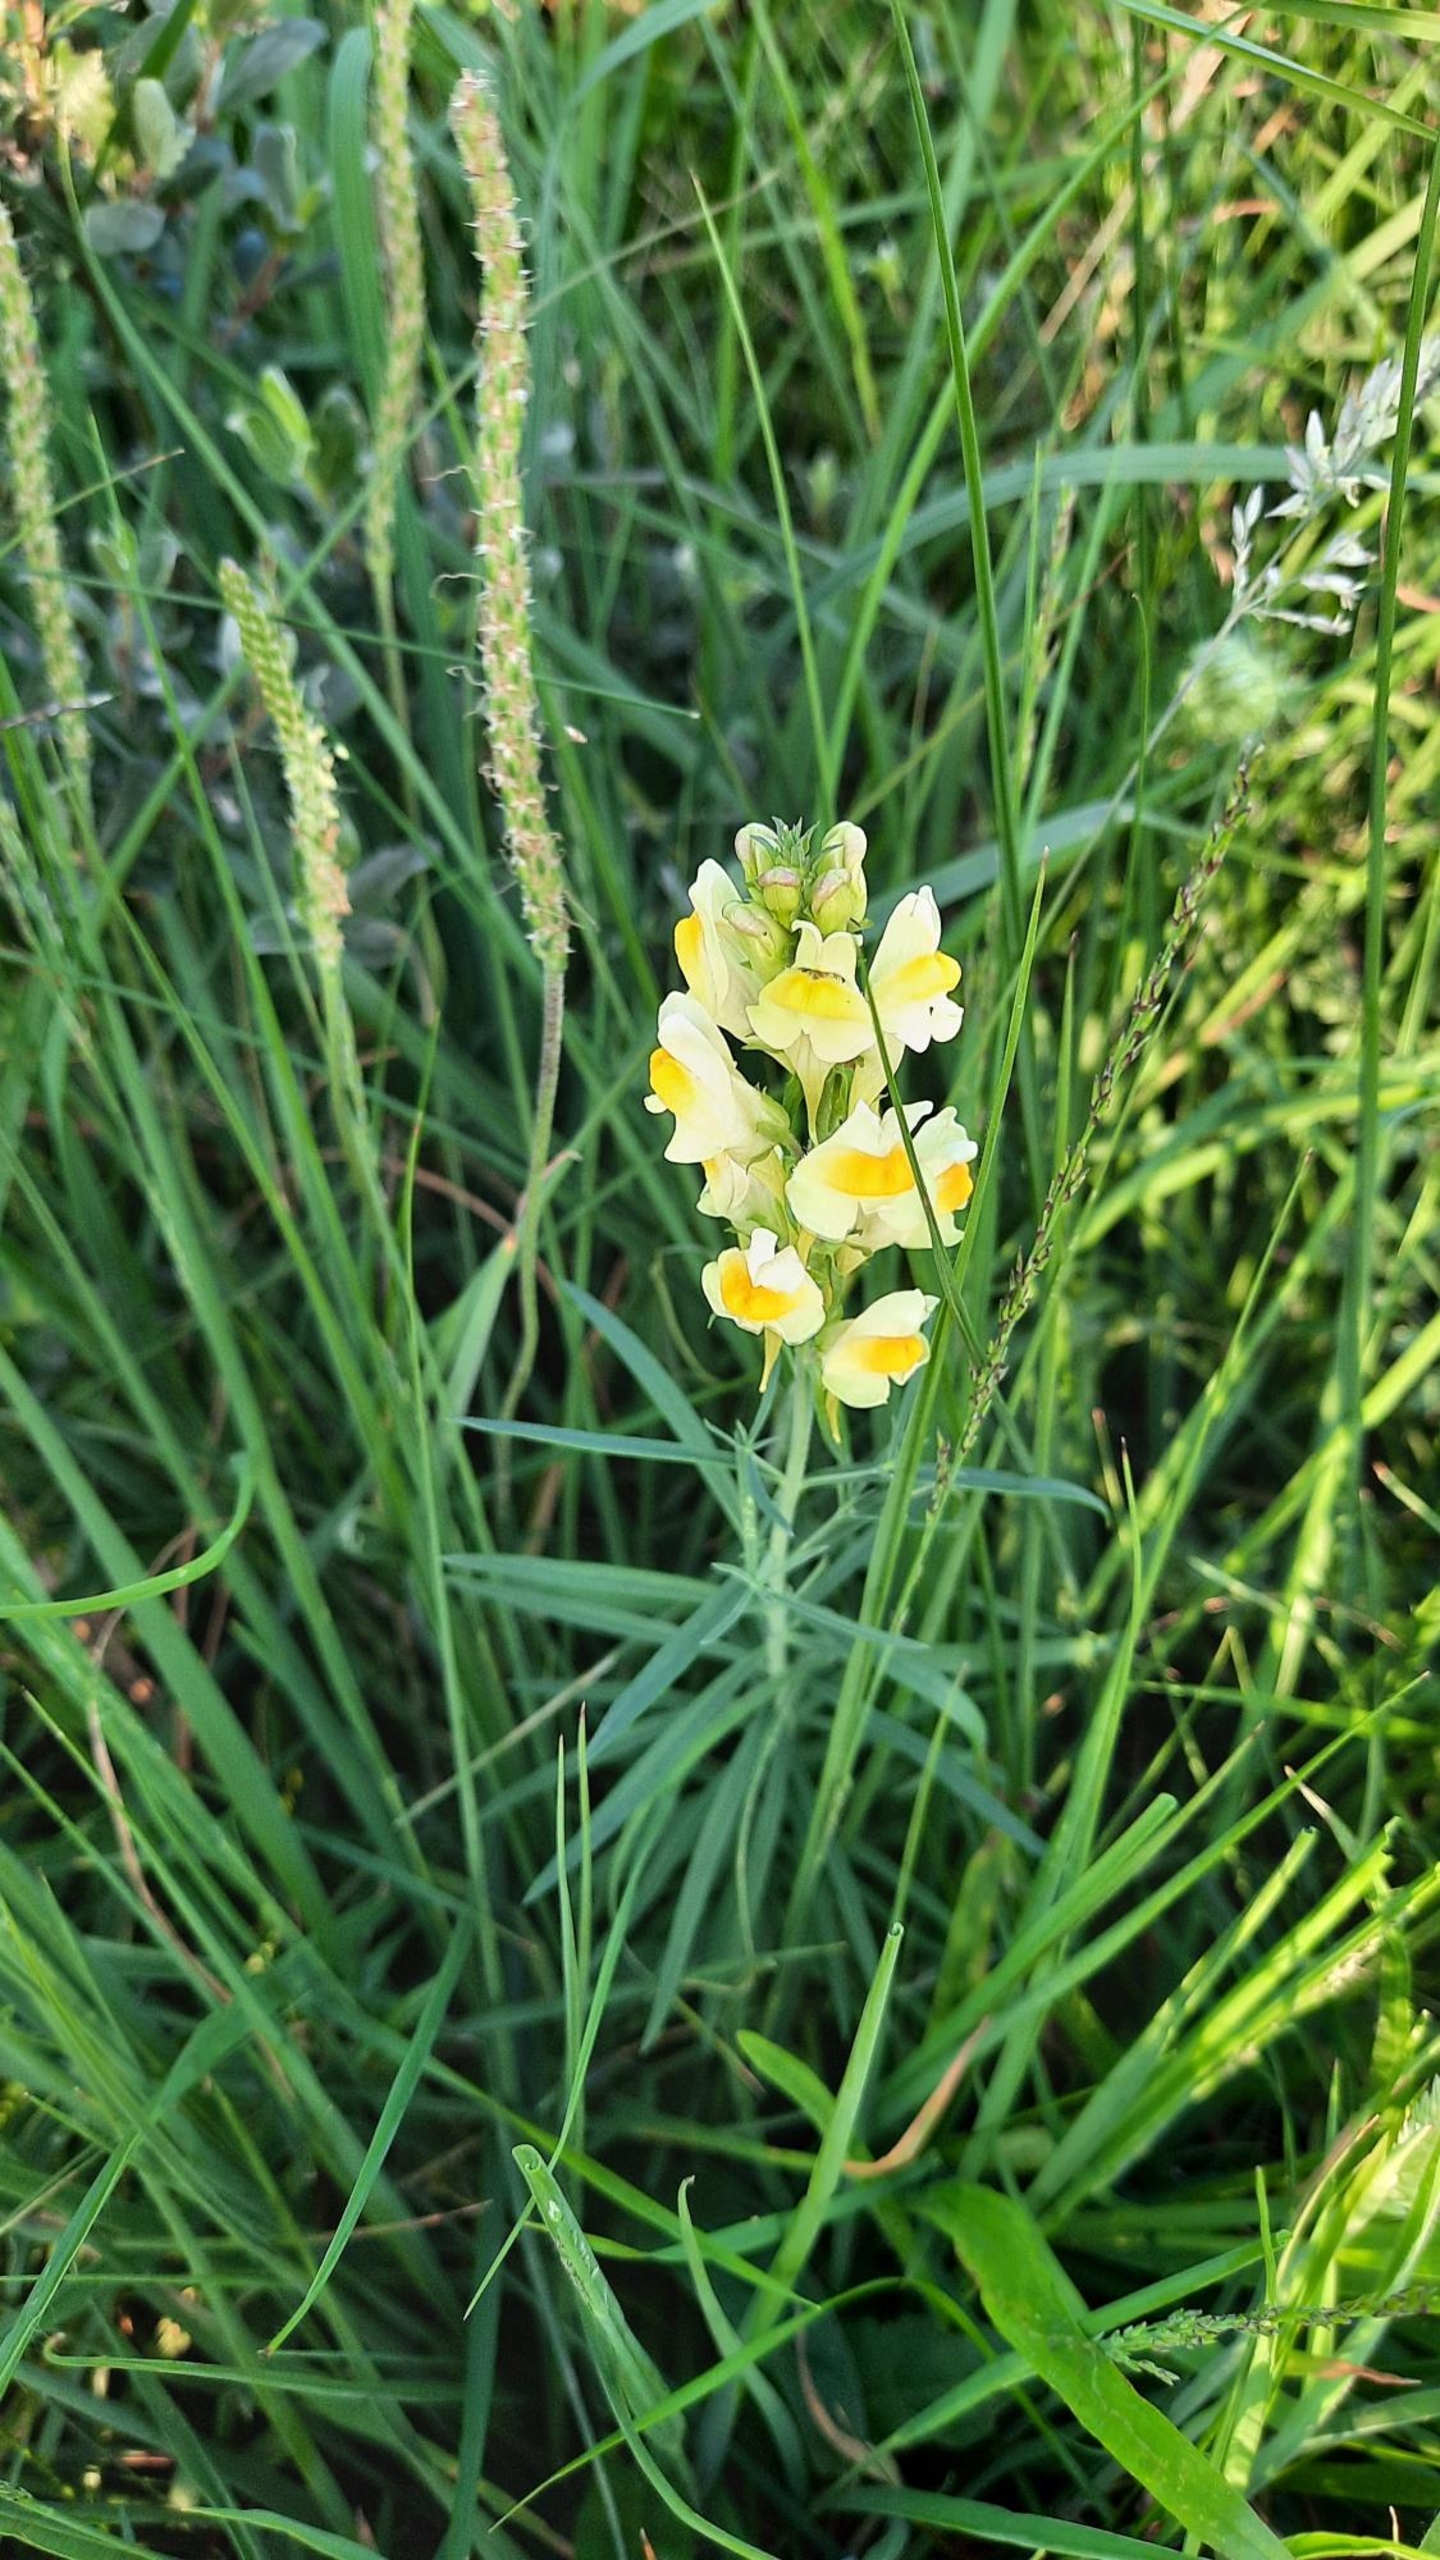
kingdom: Plantae
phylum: Tracheophyta
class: Magnoliopsida
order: Lamiales
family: Plantaginaceae
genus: Linaria
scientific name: Linaria vulgaris
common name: Almindelig torskemund
